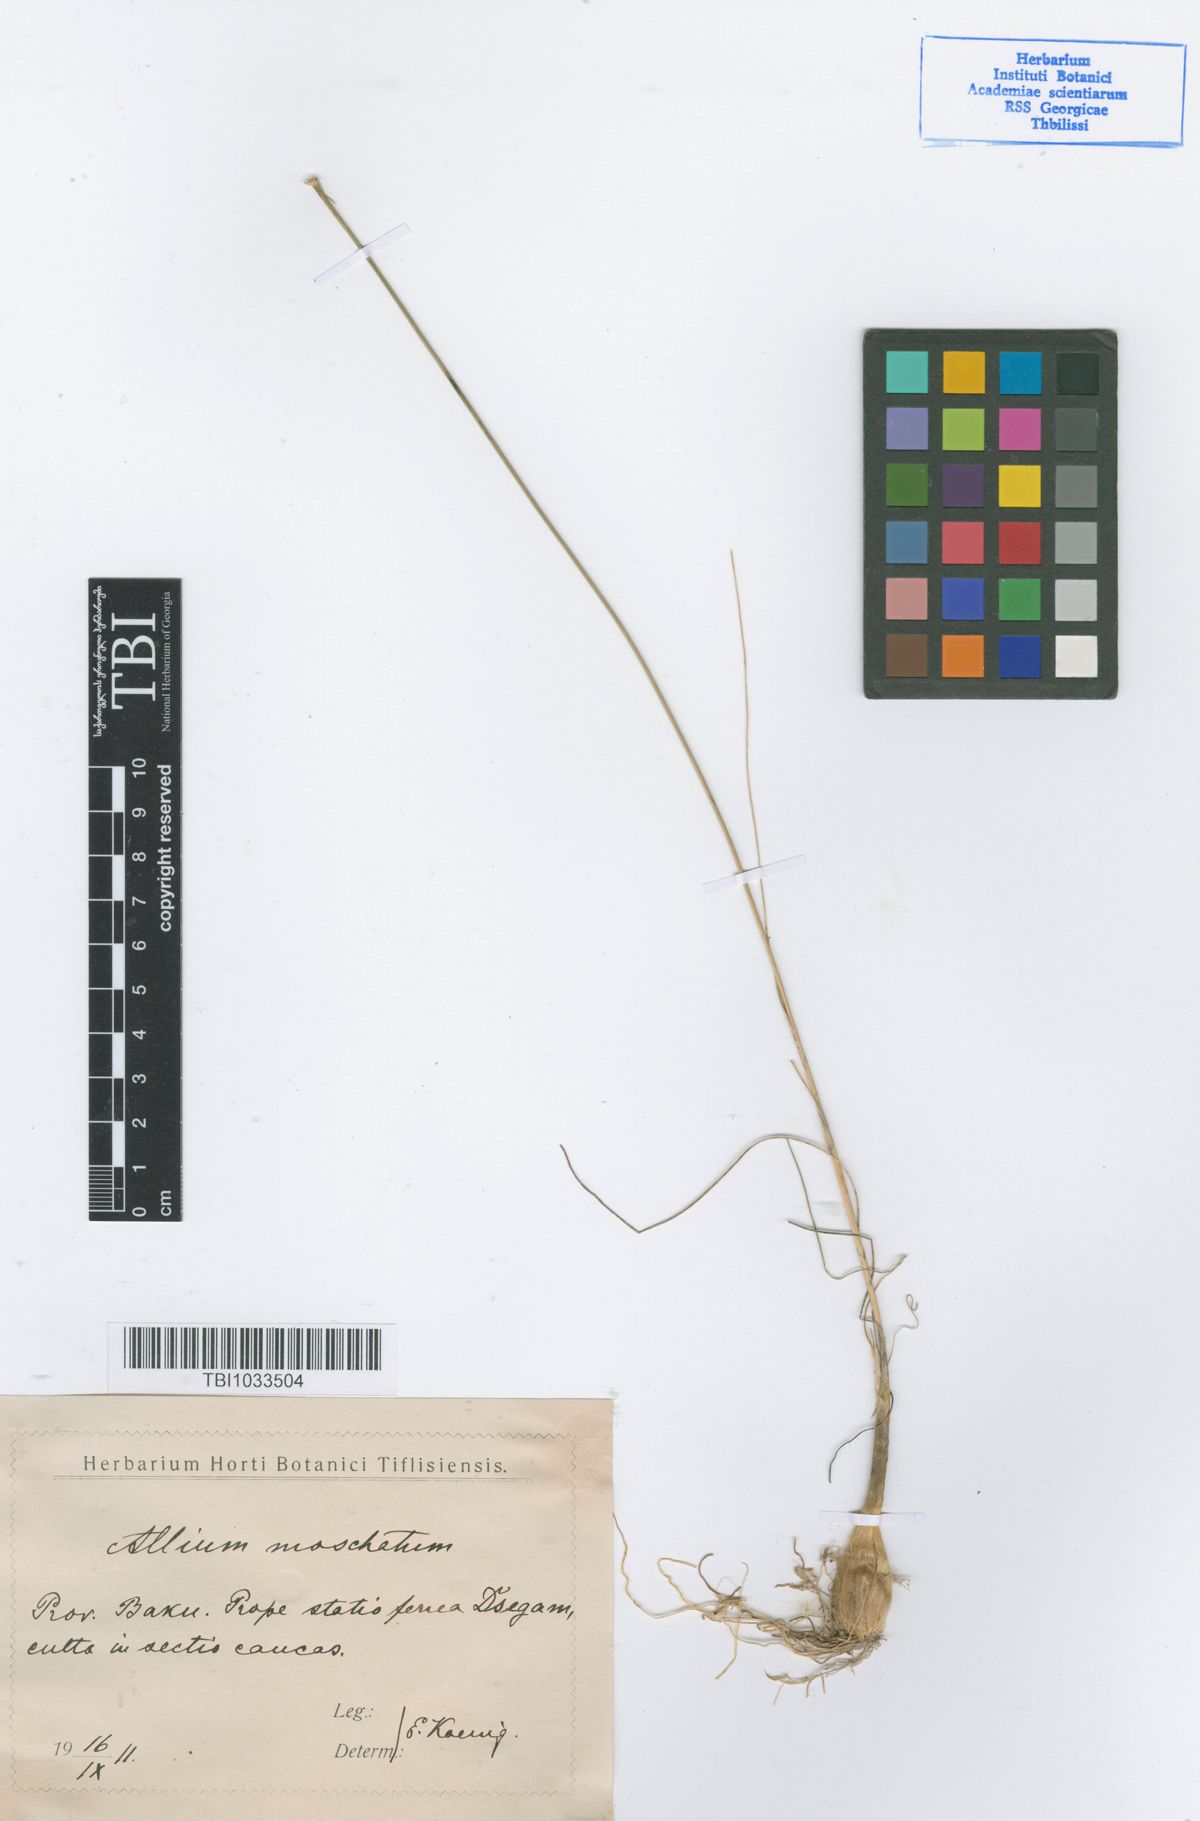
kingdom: Plantae
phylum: Tracheophyta
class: Liliopsida
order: Asparagales
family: Amaryllidaceae
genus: Allium
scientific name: Allium moschatum
